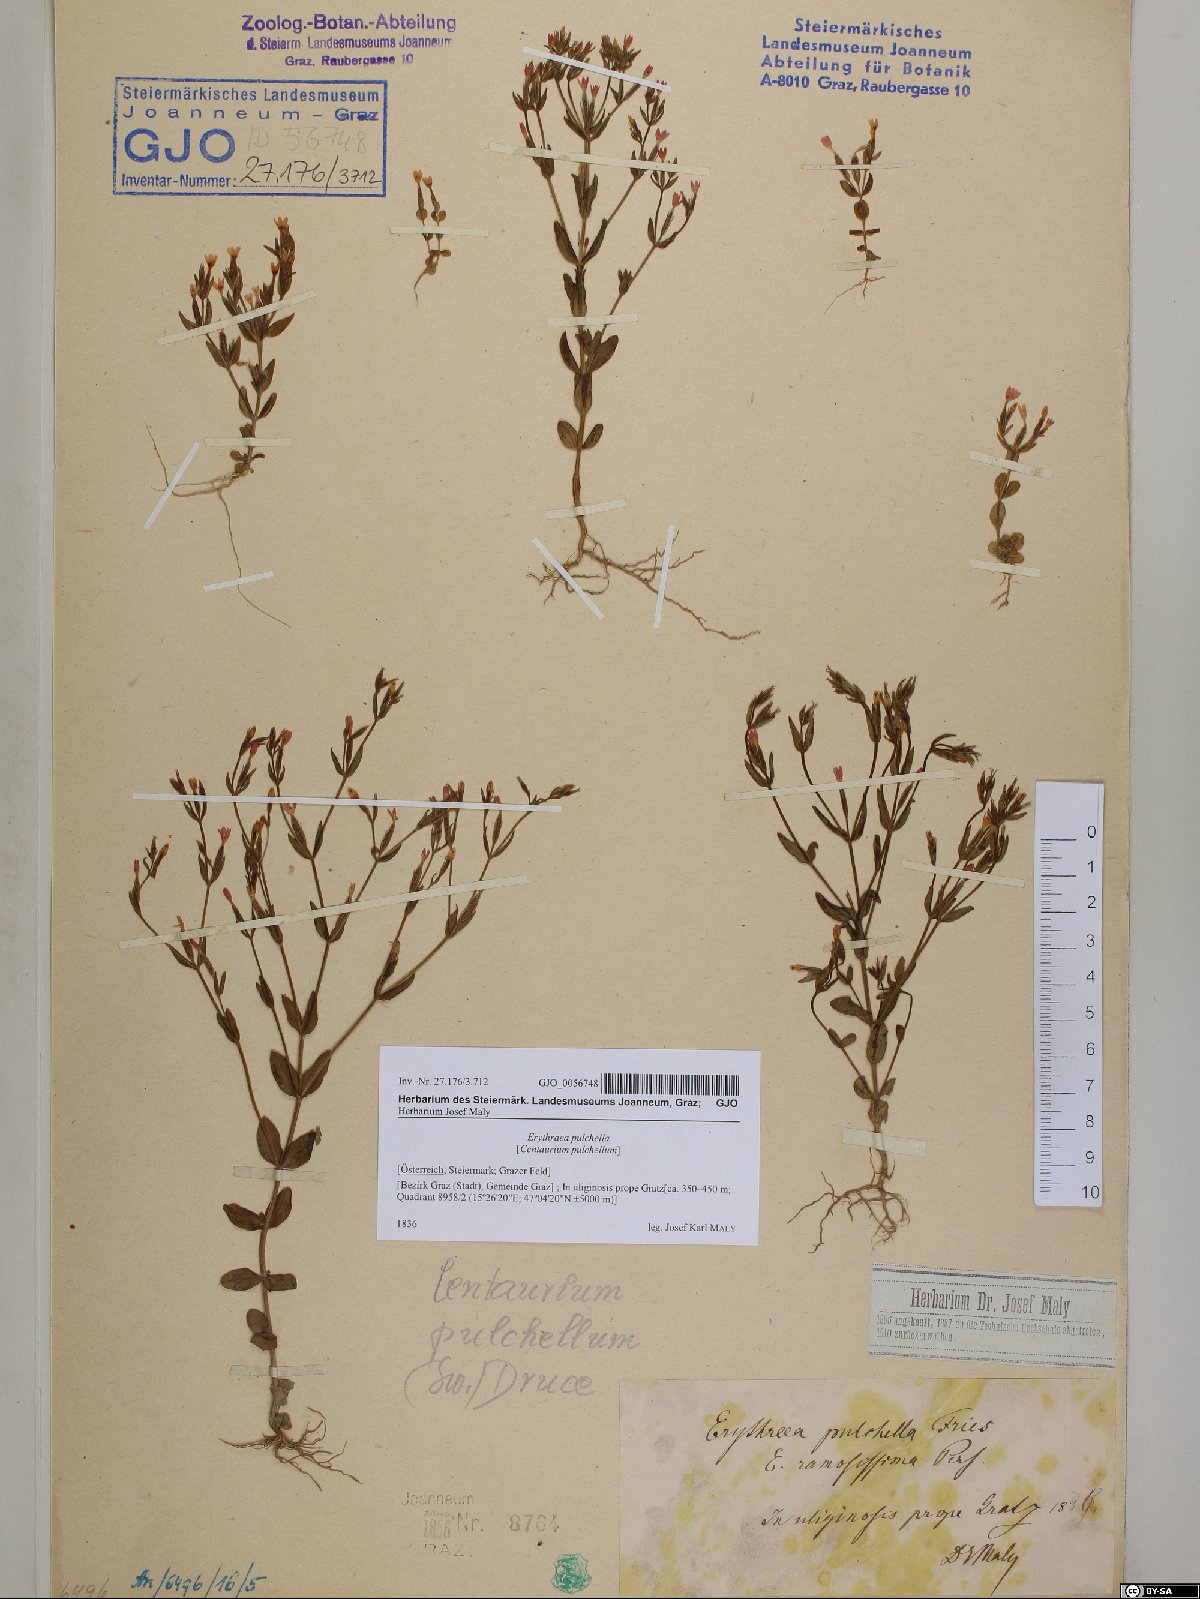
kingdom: Plantae
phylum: Tracheophyta
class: Magnoliopsida
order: Gentianales
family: Gentianaceae
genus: Centaurium
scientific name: Centaurium pulchellum
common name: Lesser centaury
